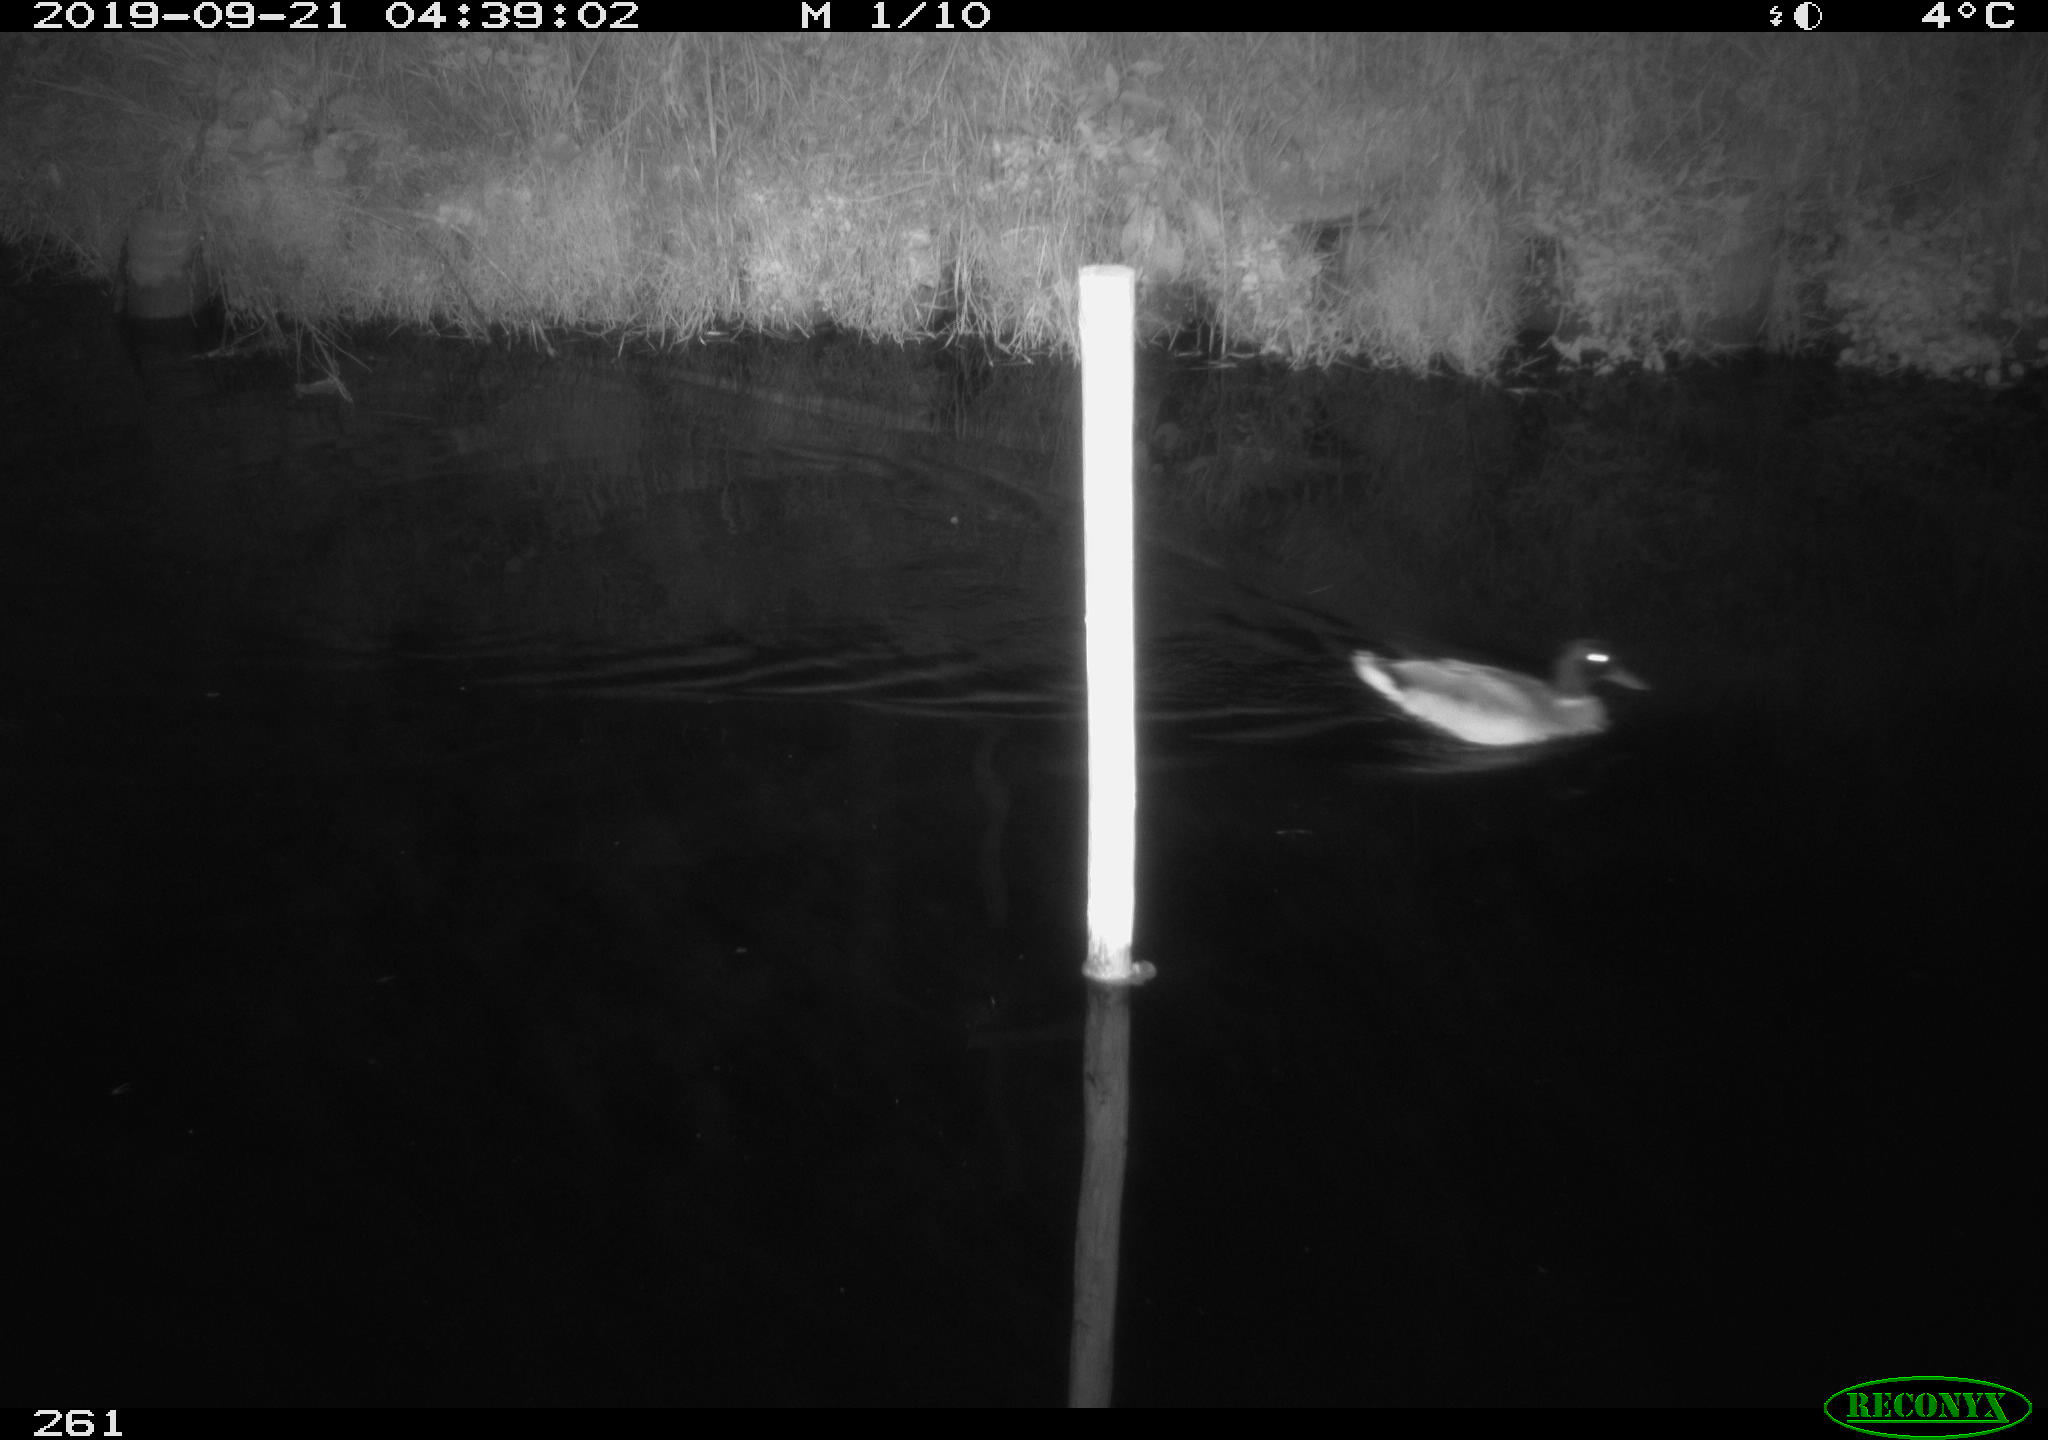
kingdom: Animalia
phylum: Chordata
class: Aves
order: Anseriformes
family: Anatidae
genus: Anas
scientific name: Anas platyrhynchos
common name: Mallard
